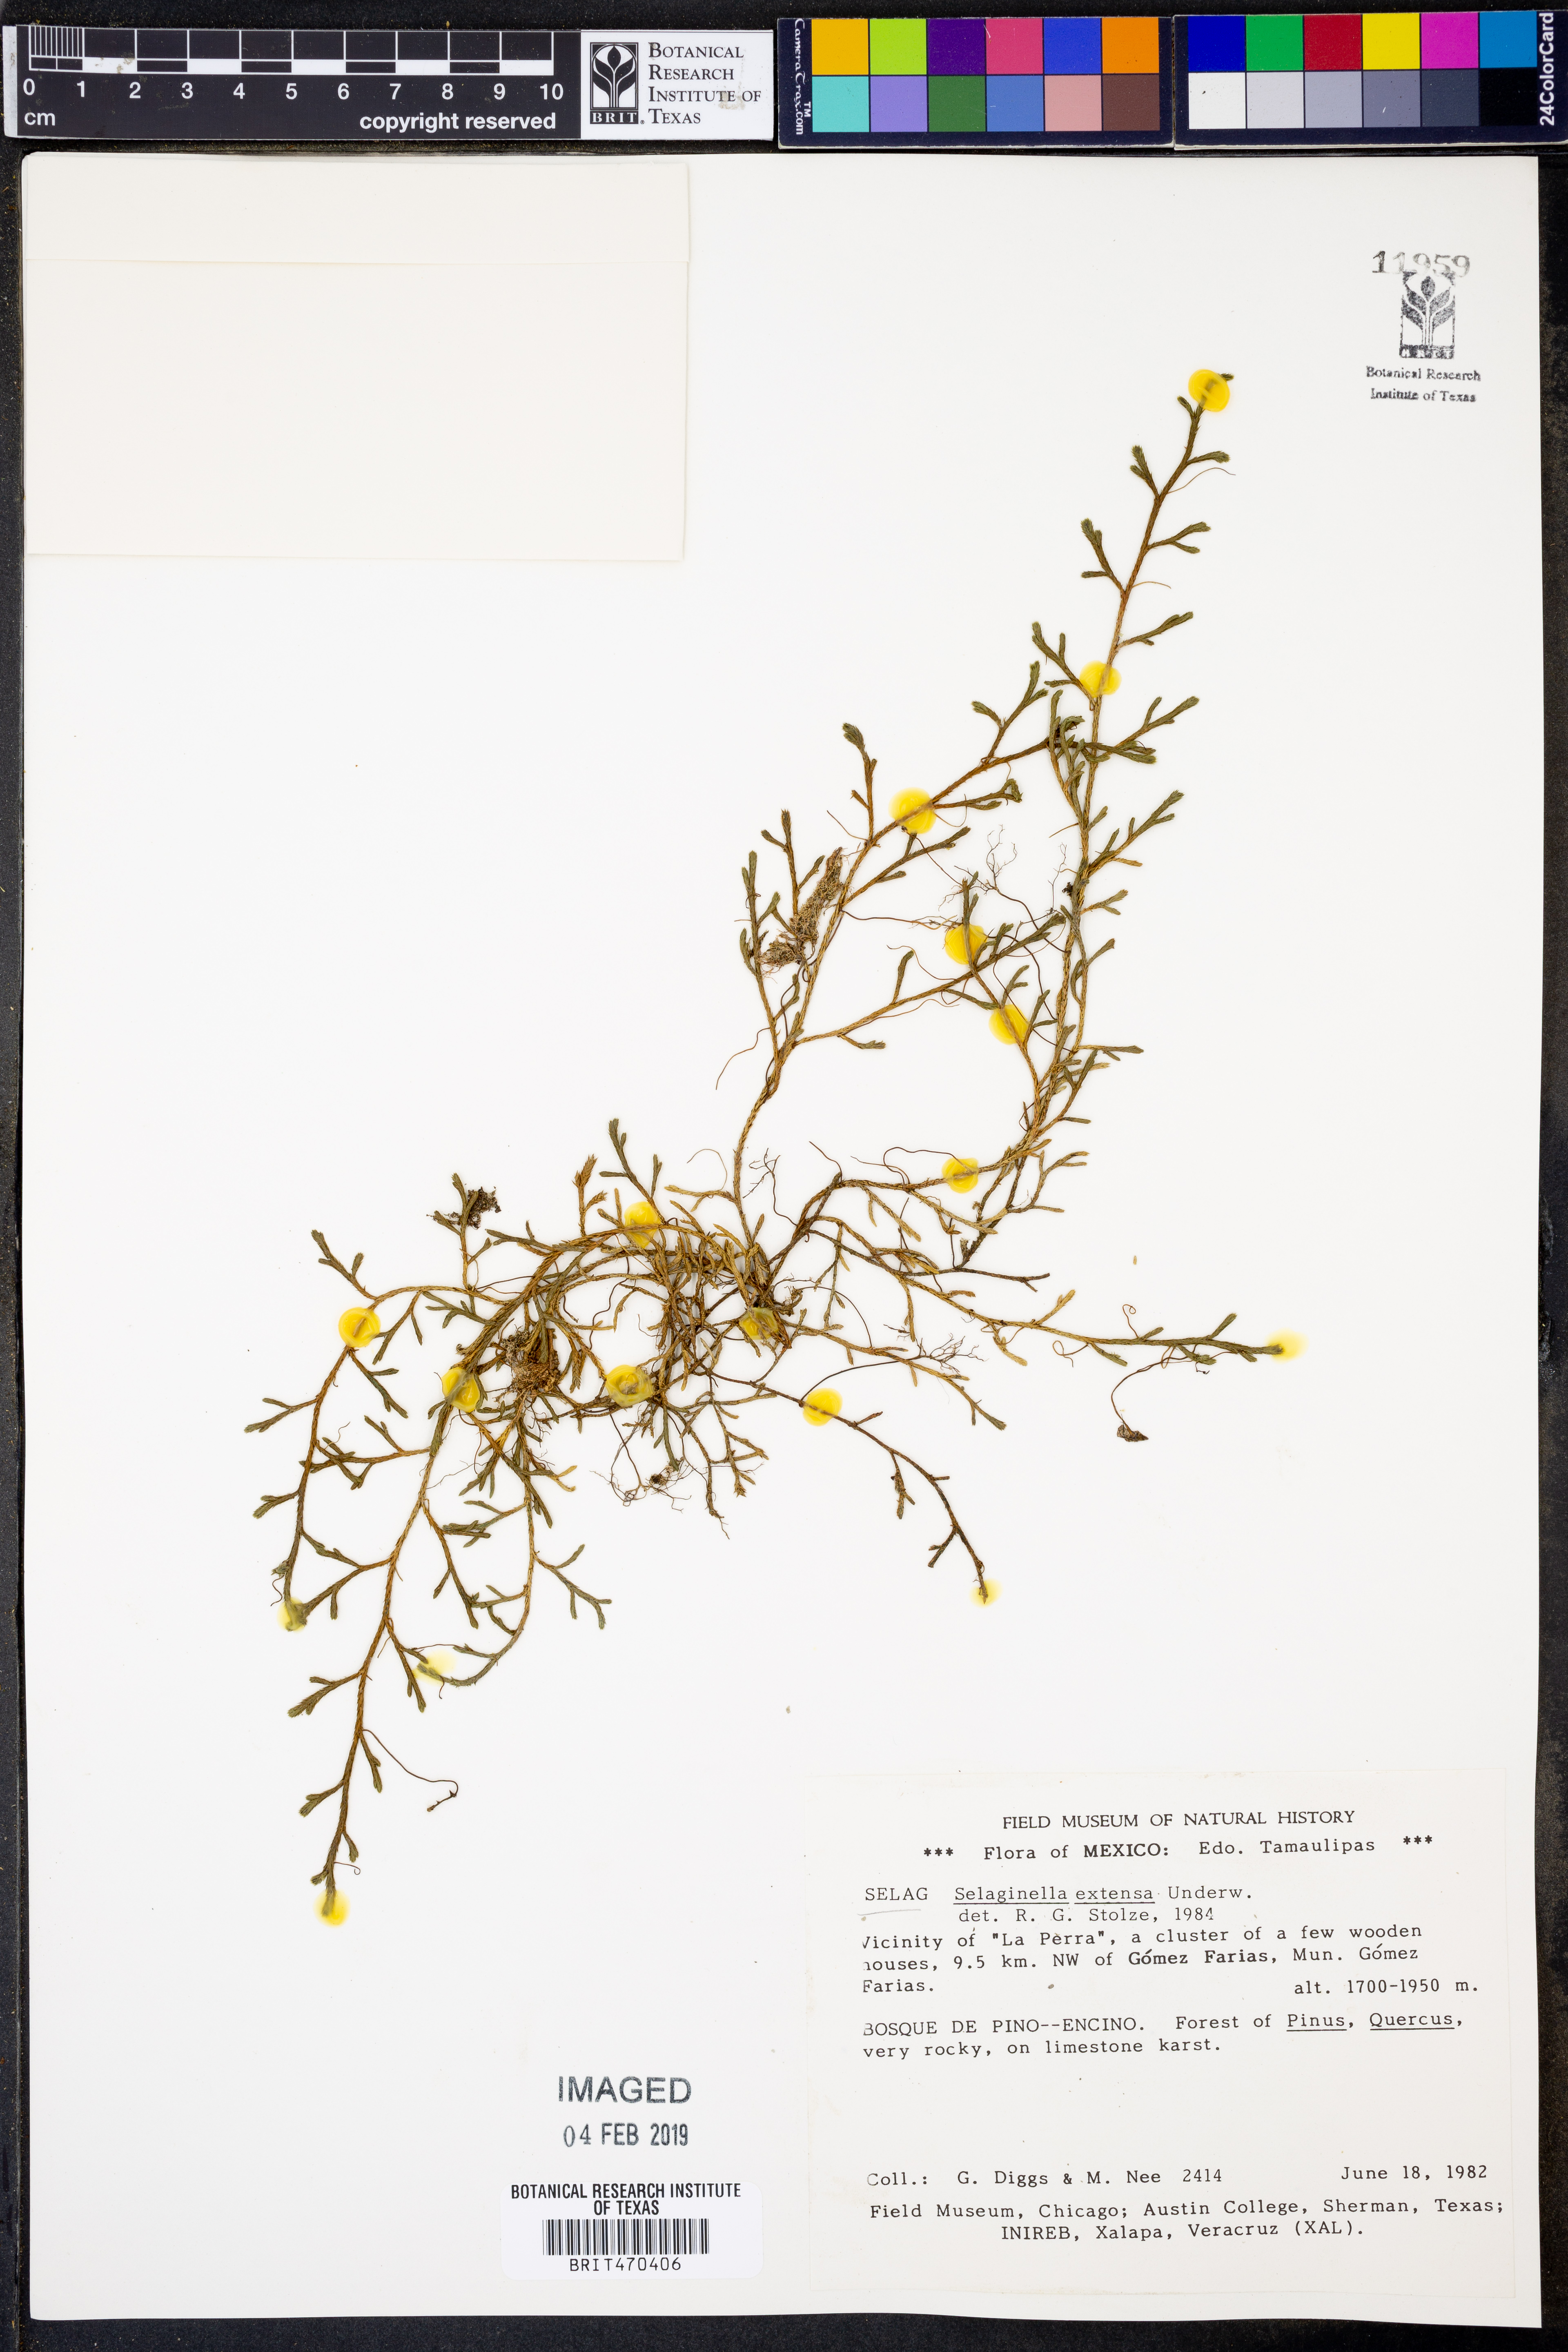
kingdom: Plantae
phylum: Tracheophyta
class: Lycopodiopsida
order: Selaginellales
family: Selaginellaceae
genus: Selaginella
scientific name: Selaginella extensa
